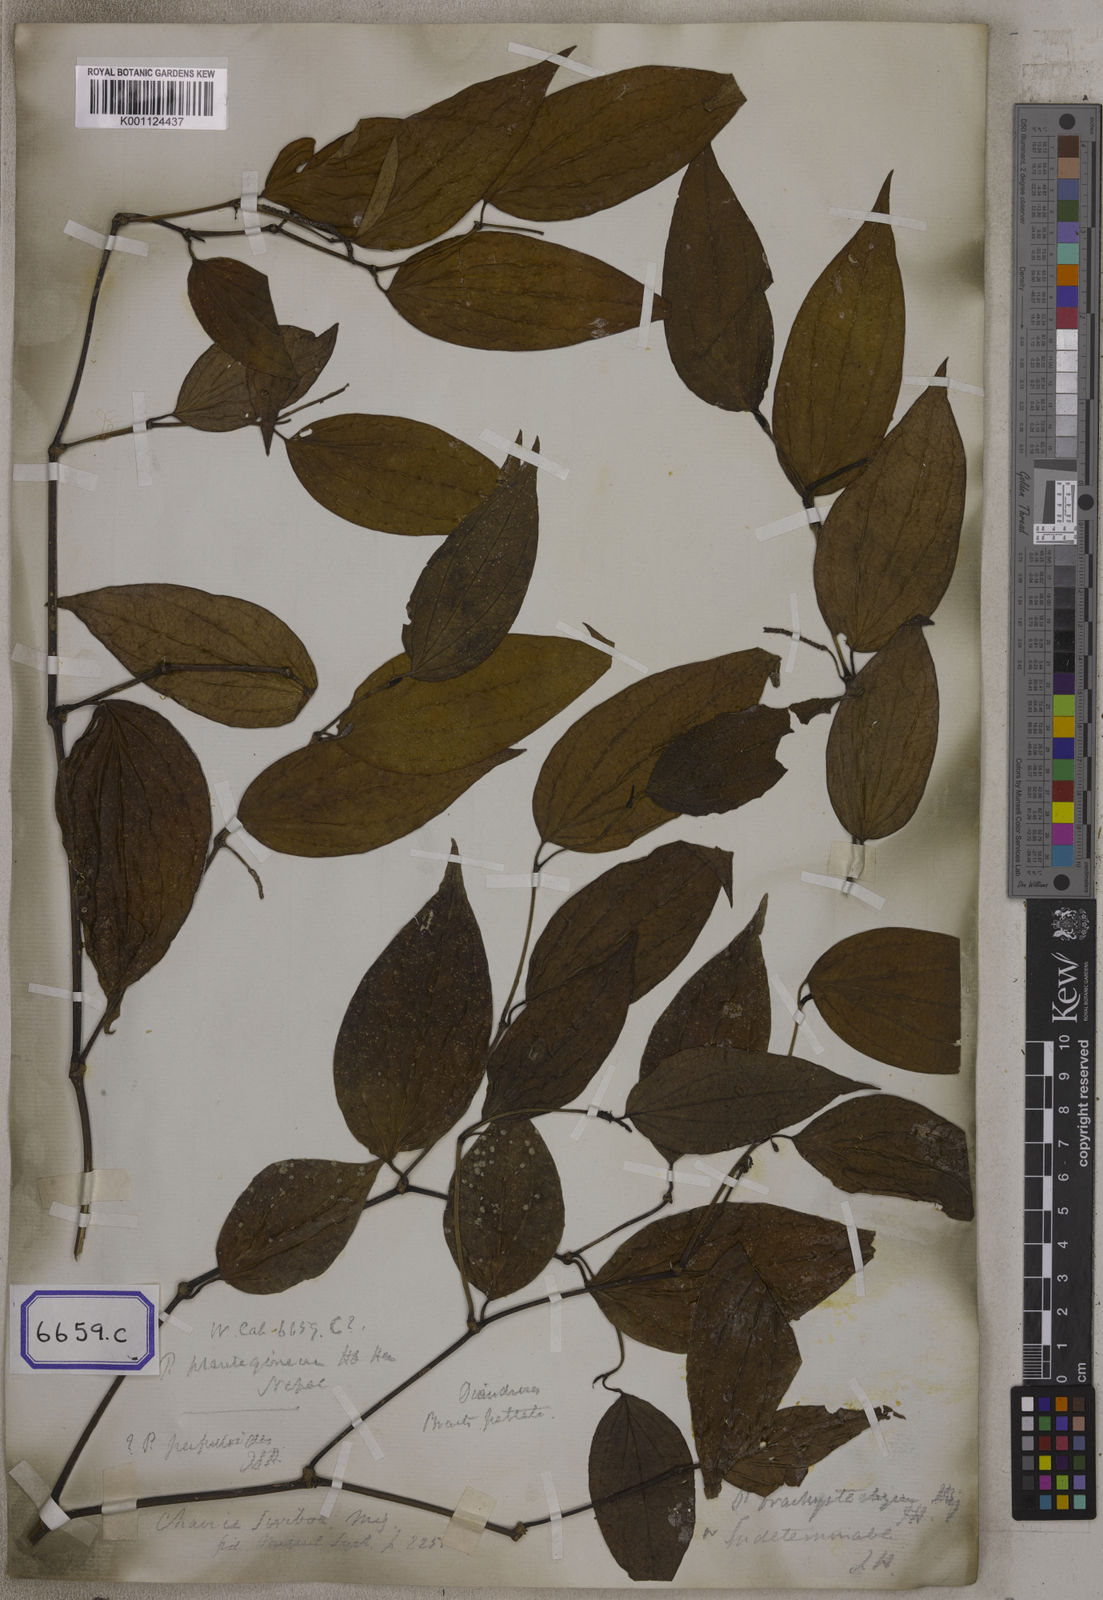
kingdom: Plantae
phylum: Tracheophyta
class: Magnoliopsida
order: Piperales
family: Piperaceae
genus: Piper
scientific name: Piper hamiltonii
